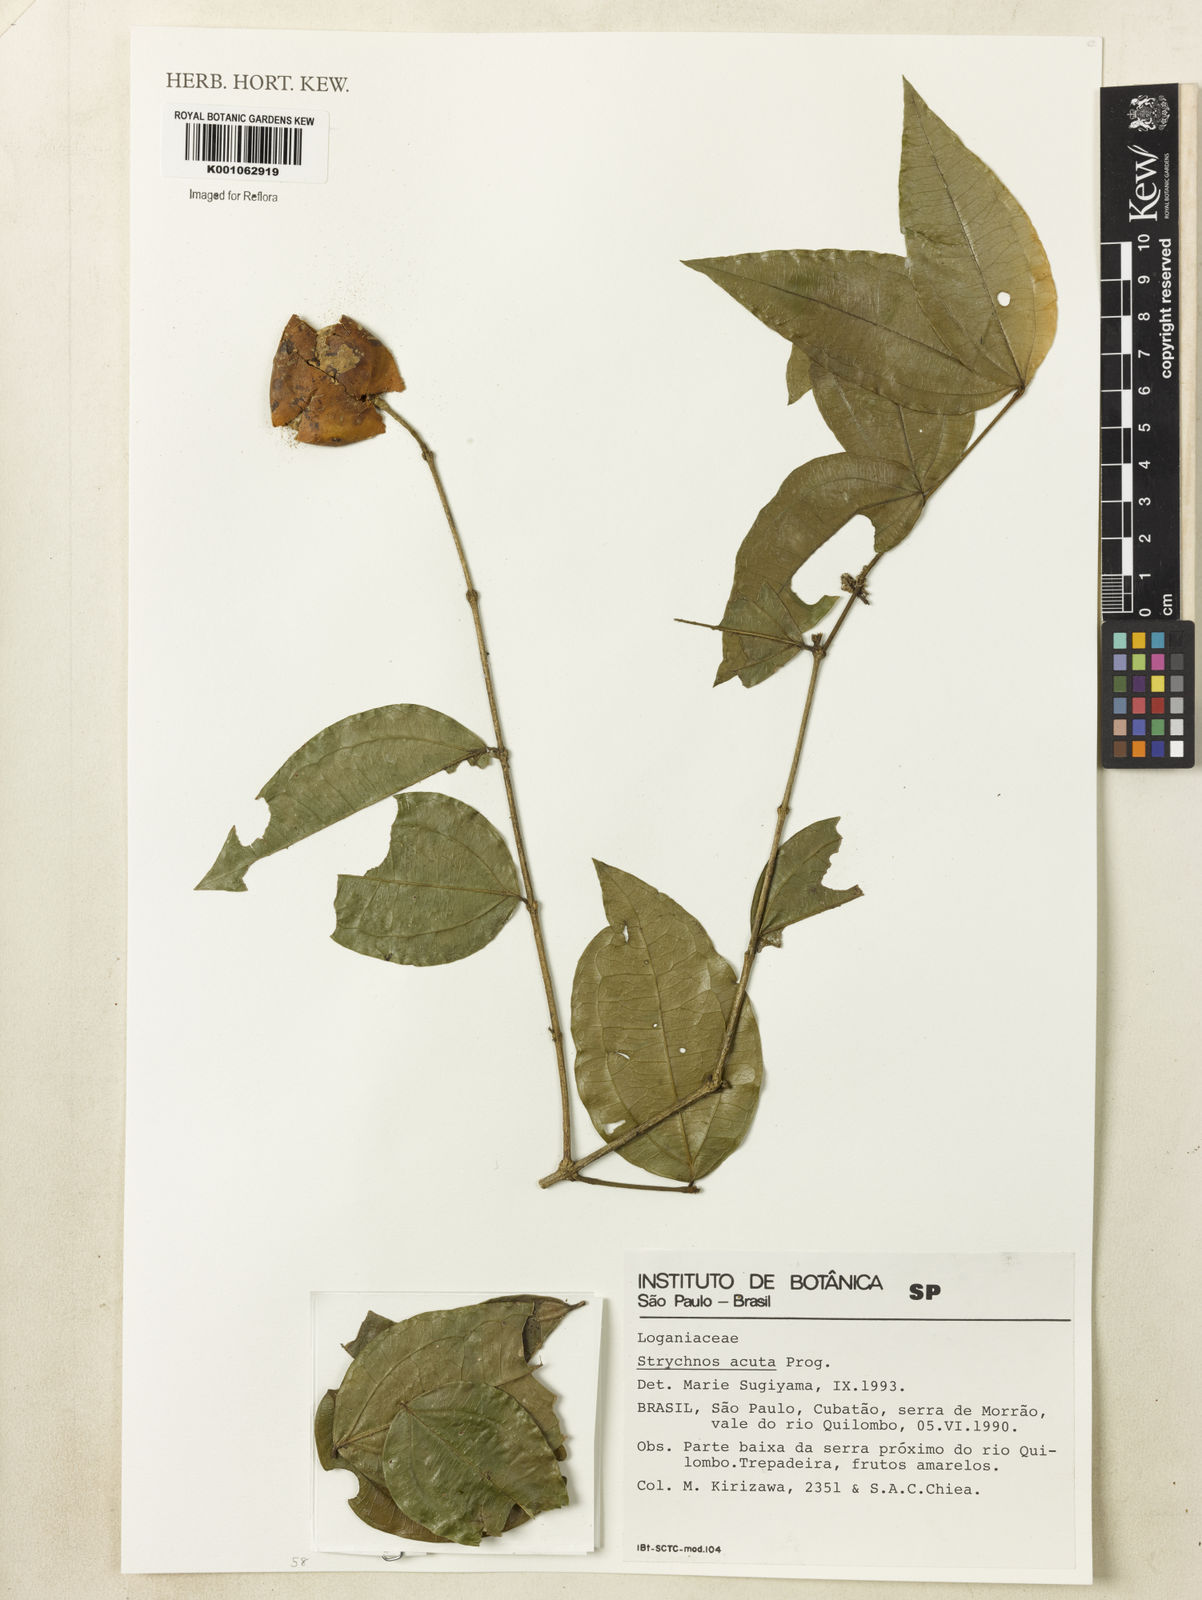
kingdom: Plantae
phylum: Tracheophyta
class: Magnoliopsida
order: Gentianales
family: Loganiaceae
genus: Strychnos
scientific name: Strychnos acuta
